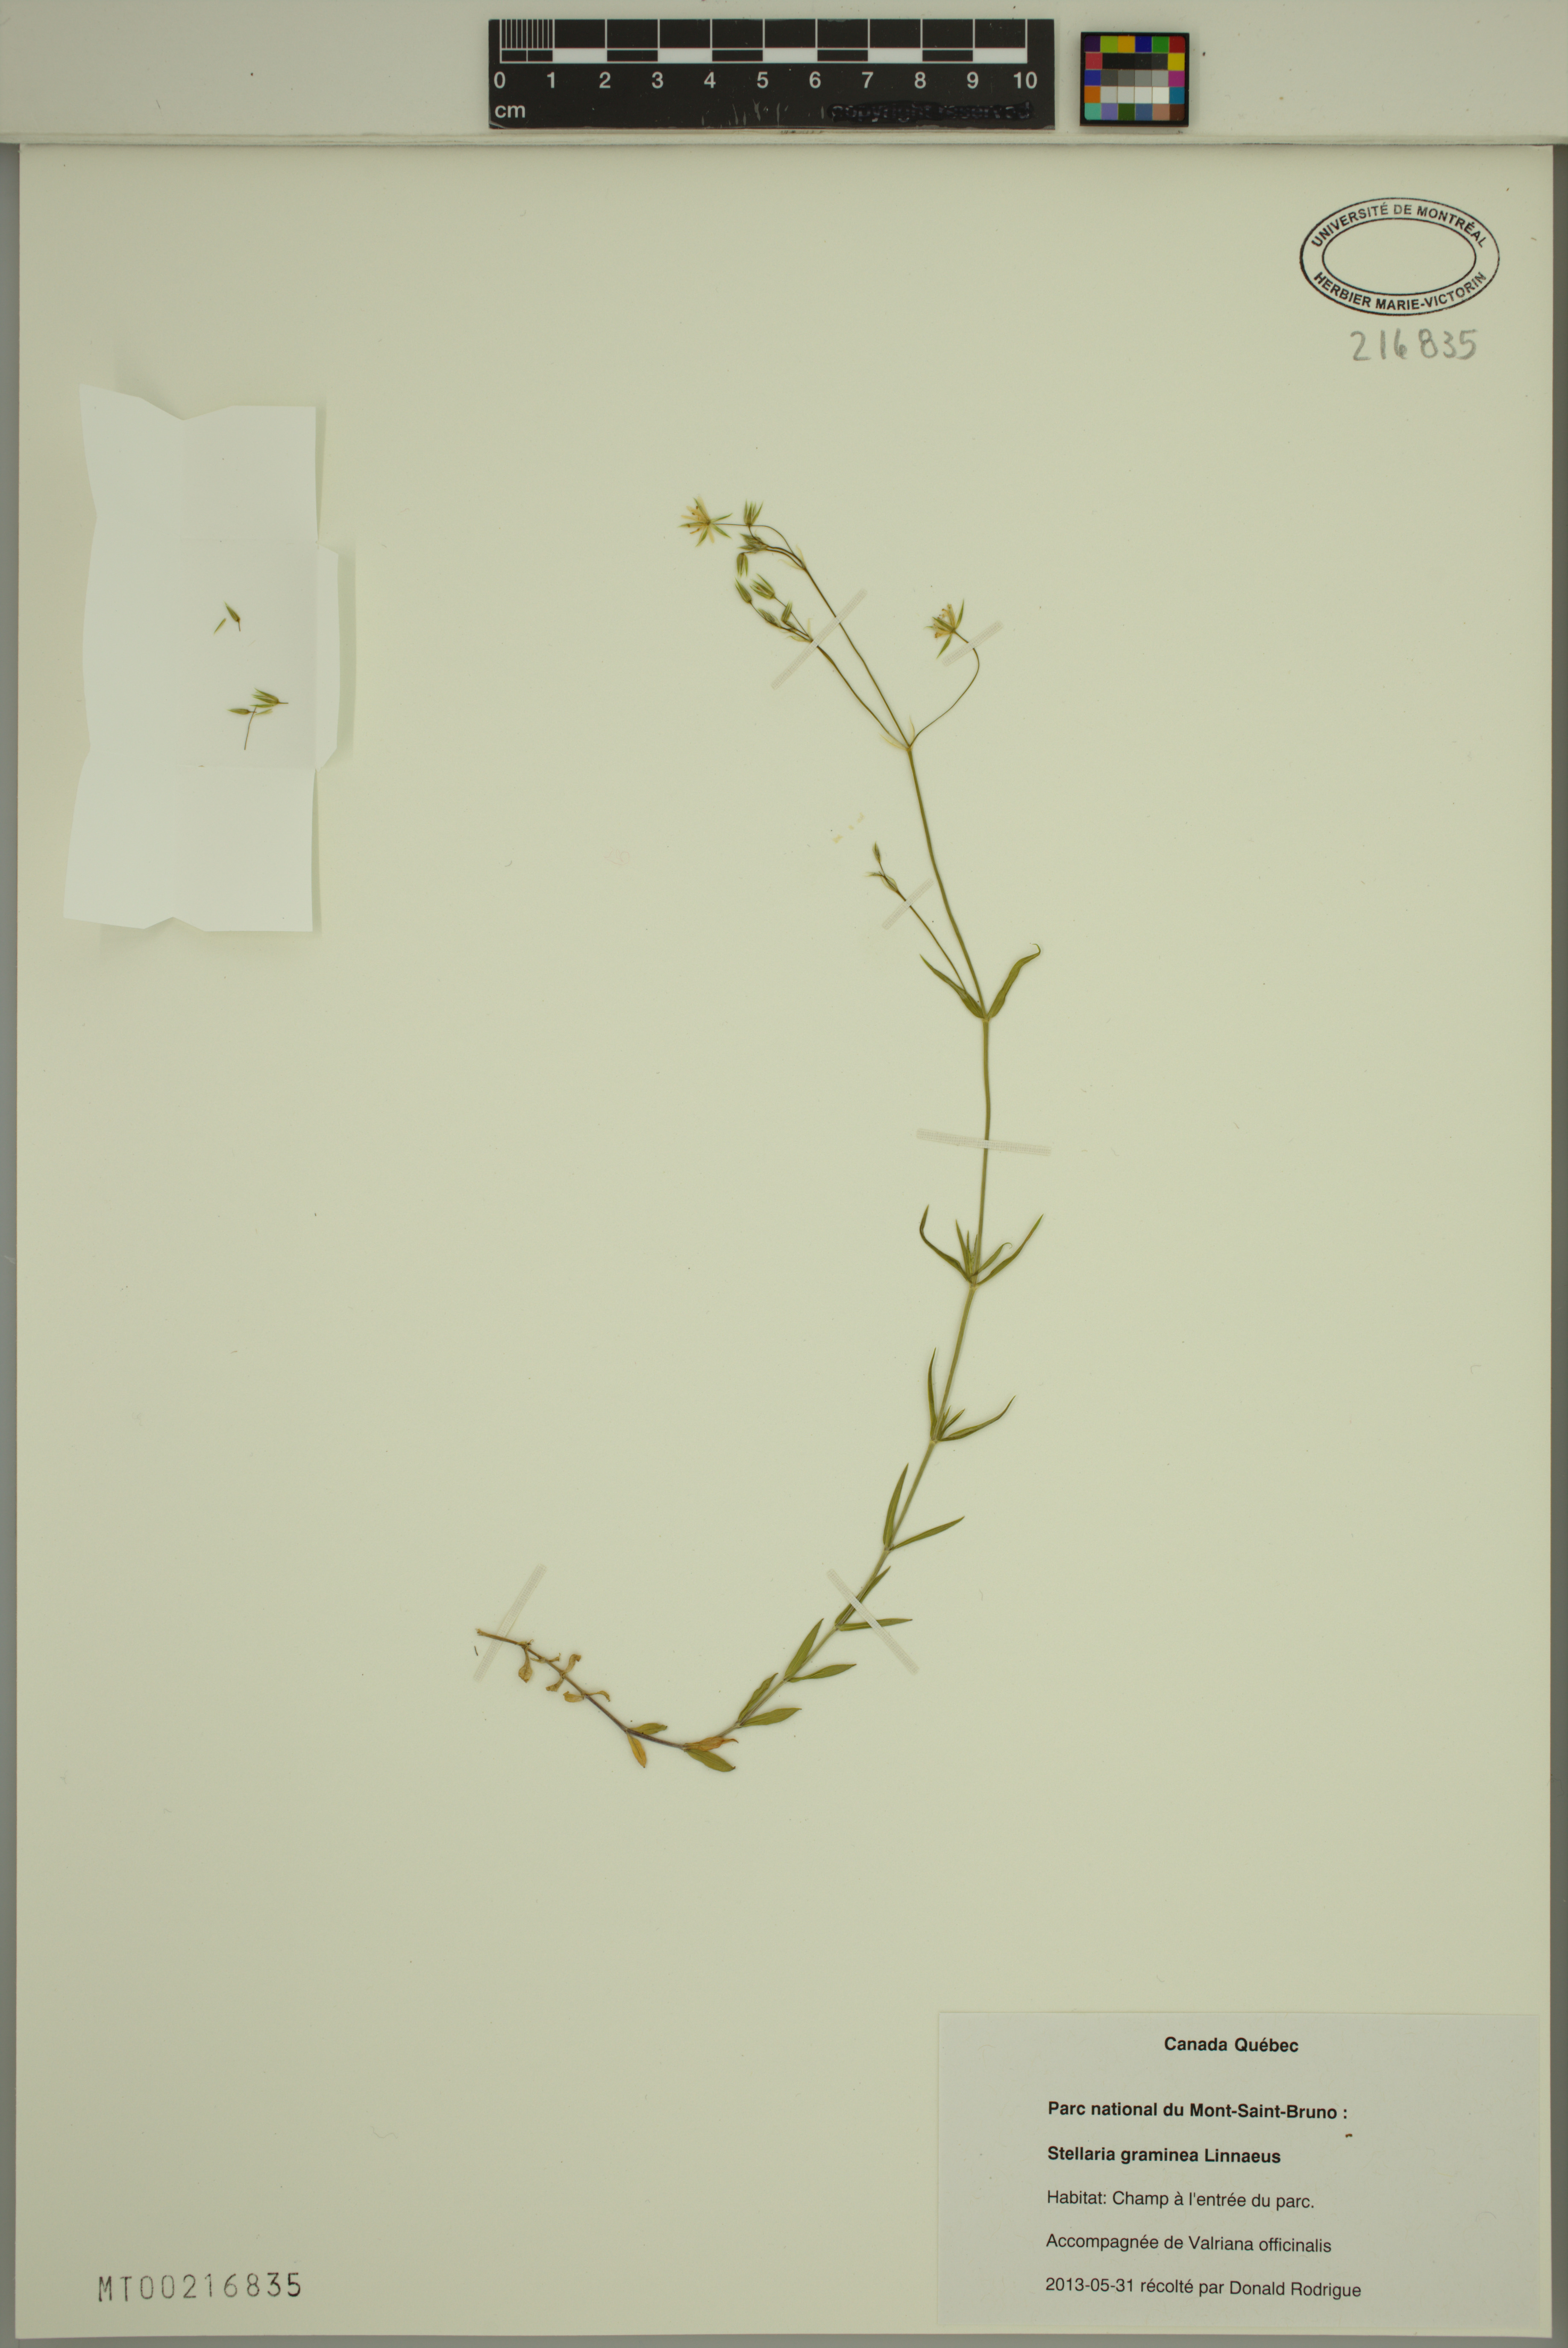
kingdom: Plantae
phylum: Tracheophyta
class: Magnoliopsida
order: Caryophyllales
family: Caryophyllaceae
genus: Stellaria
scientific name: Stellaria graminea
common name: Grass-like starwort
